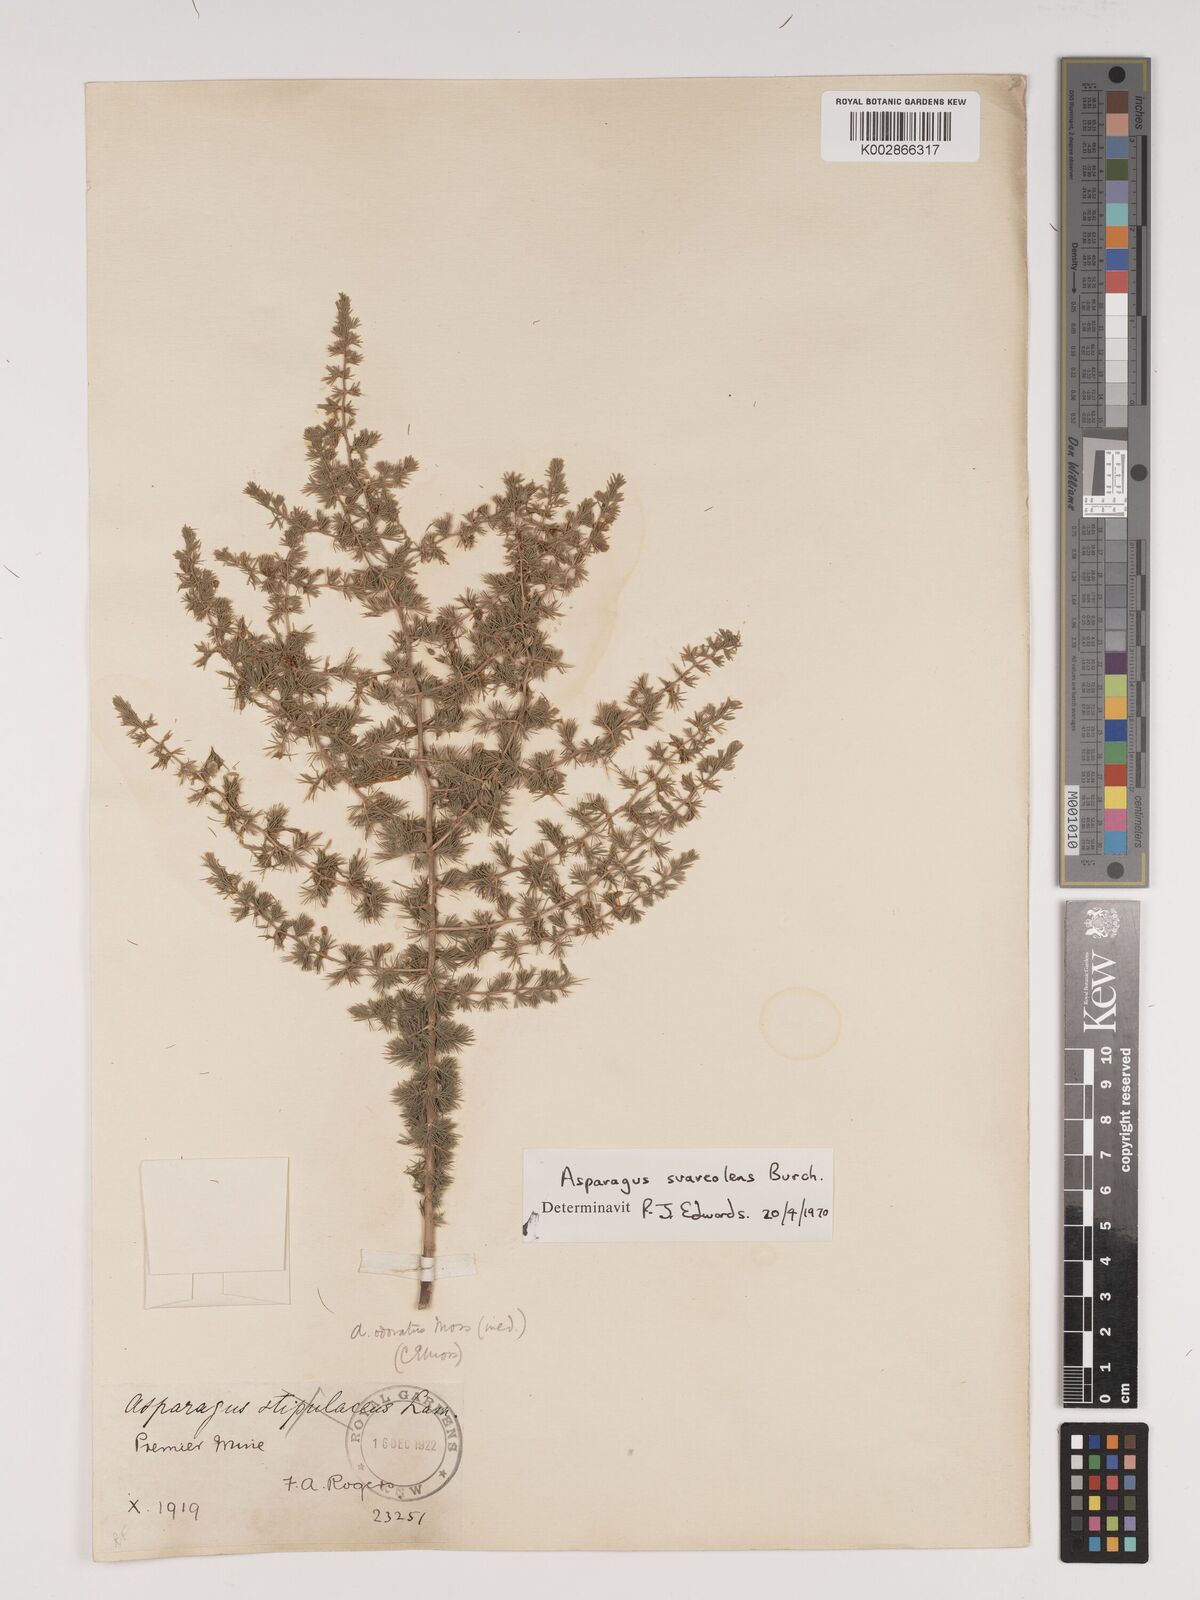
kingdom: Plantae
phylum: Tracheophyta
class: Liliopsida
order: Asparagales
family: Asparagaceae
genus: Asparagus
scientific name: Asparagus suaveolens
